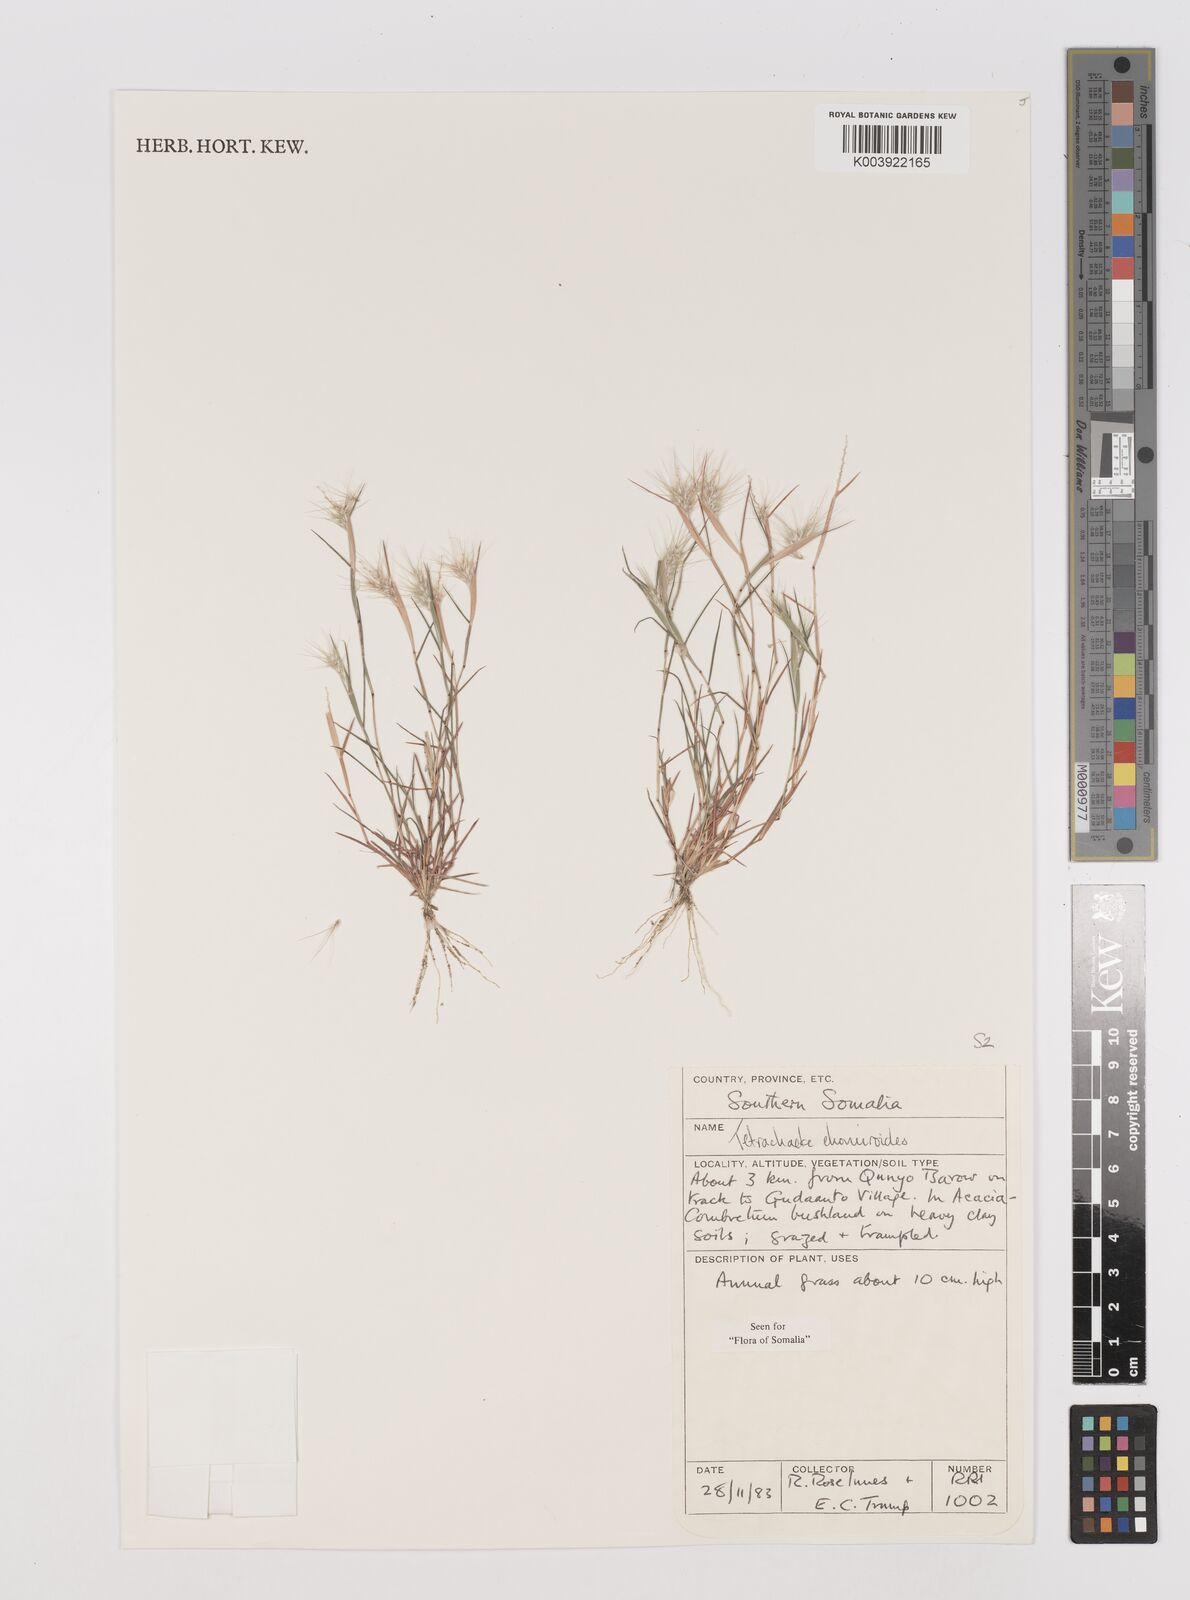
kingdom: Plantae
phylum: Tracheophyta
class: Liliopsida
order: Poales
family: Poaceae
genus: Tetrachaete
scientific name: Tetrachaete elionuroides
